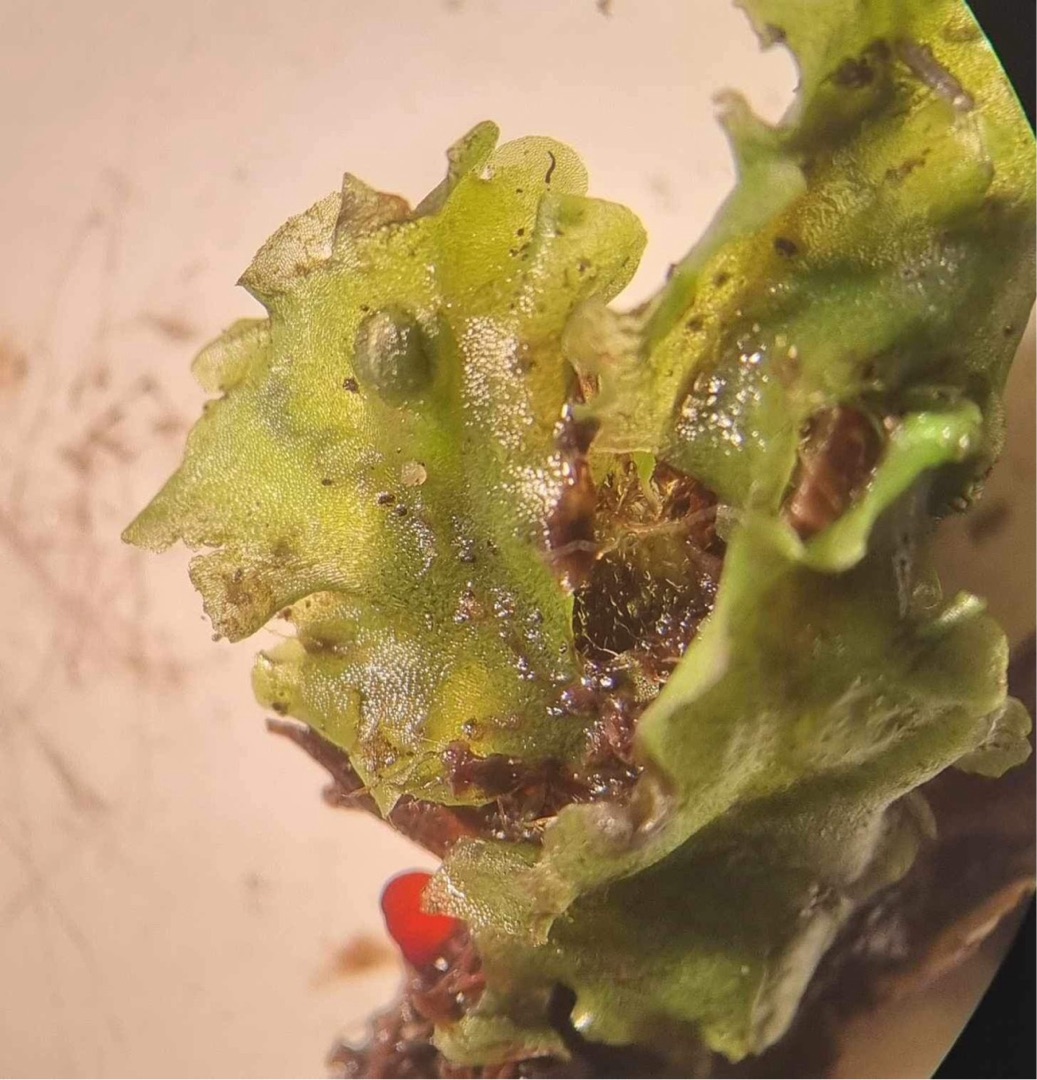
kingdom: Plantae
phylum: Marchantiophyta
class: Jungermanniopsida
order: Pelliales
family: Pelliaceae
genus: Pellia
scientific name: Pellia epiphylla
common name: Enbo ribbeløv
